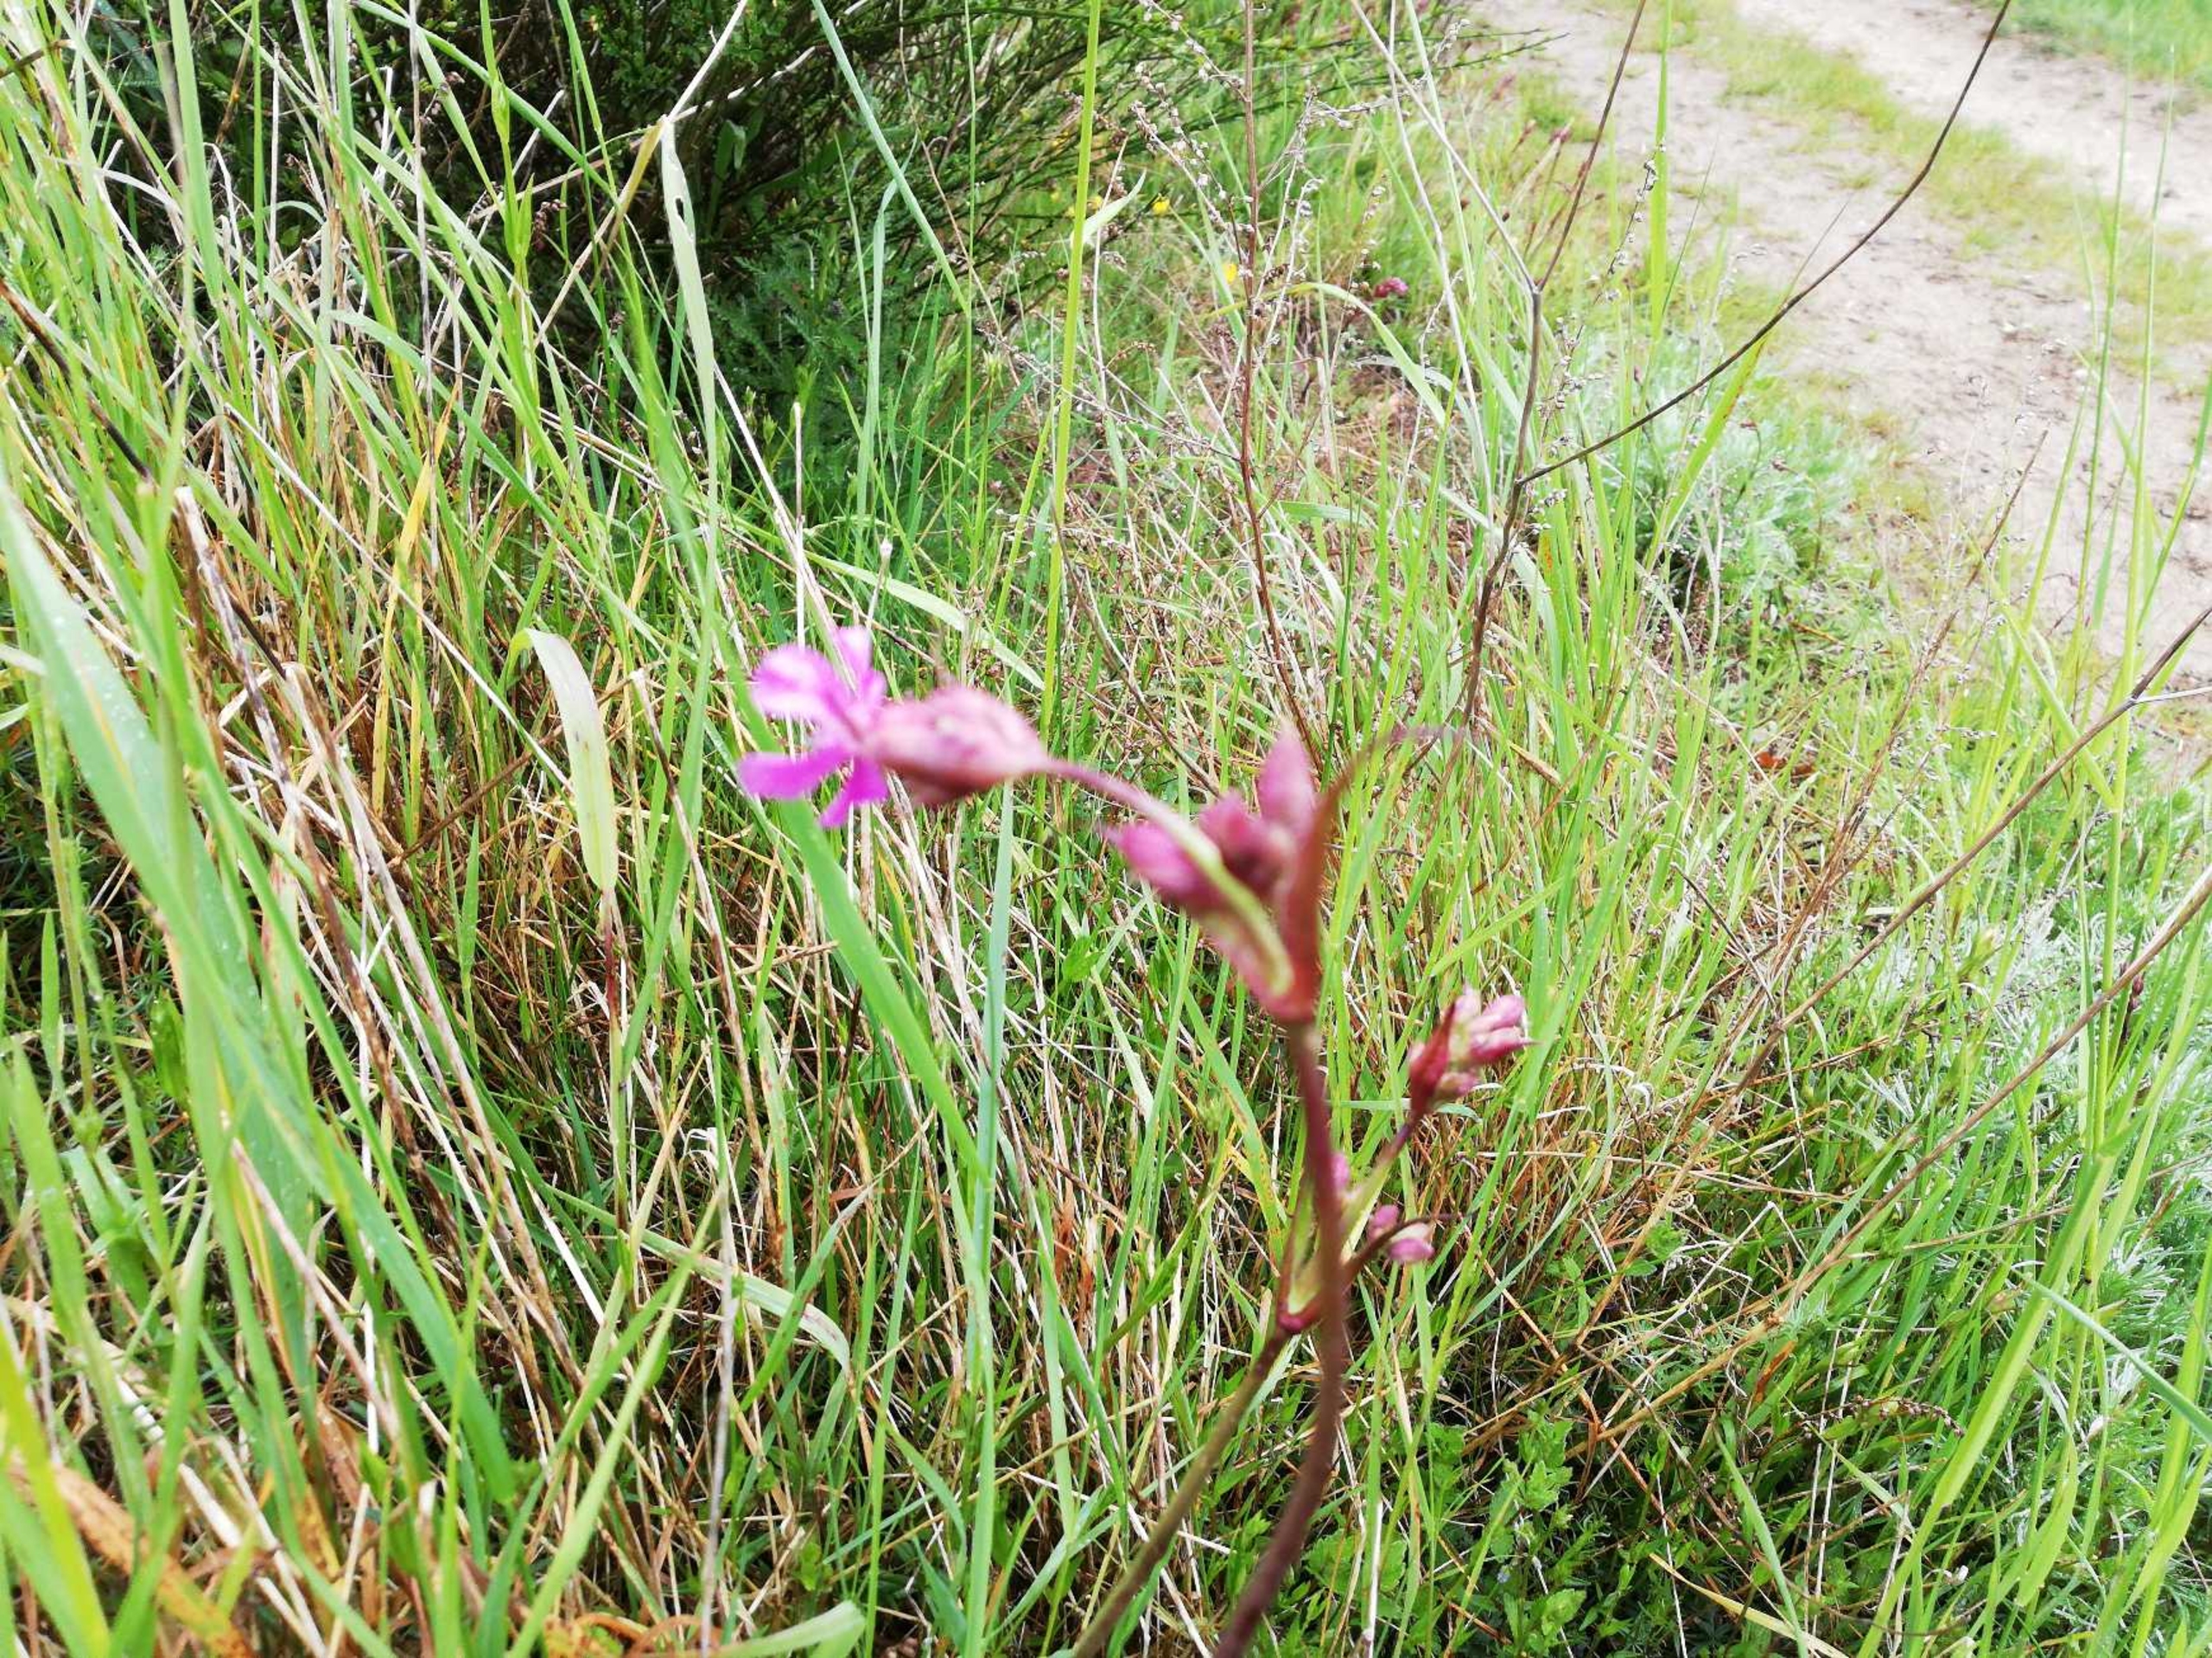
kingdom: Plantae
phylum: Tracheophyta
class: Magnoliopsida
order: Caryophyllales
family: Caryophyllaceae
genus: Viscaria
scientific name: Viscaria vulgaris
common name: Tjærenellike
